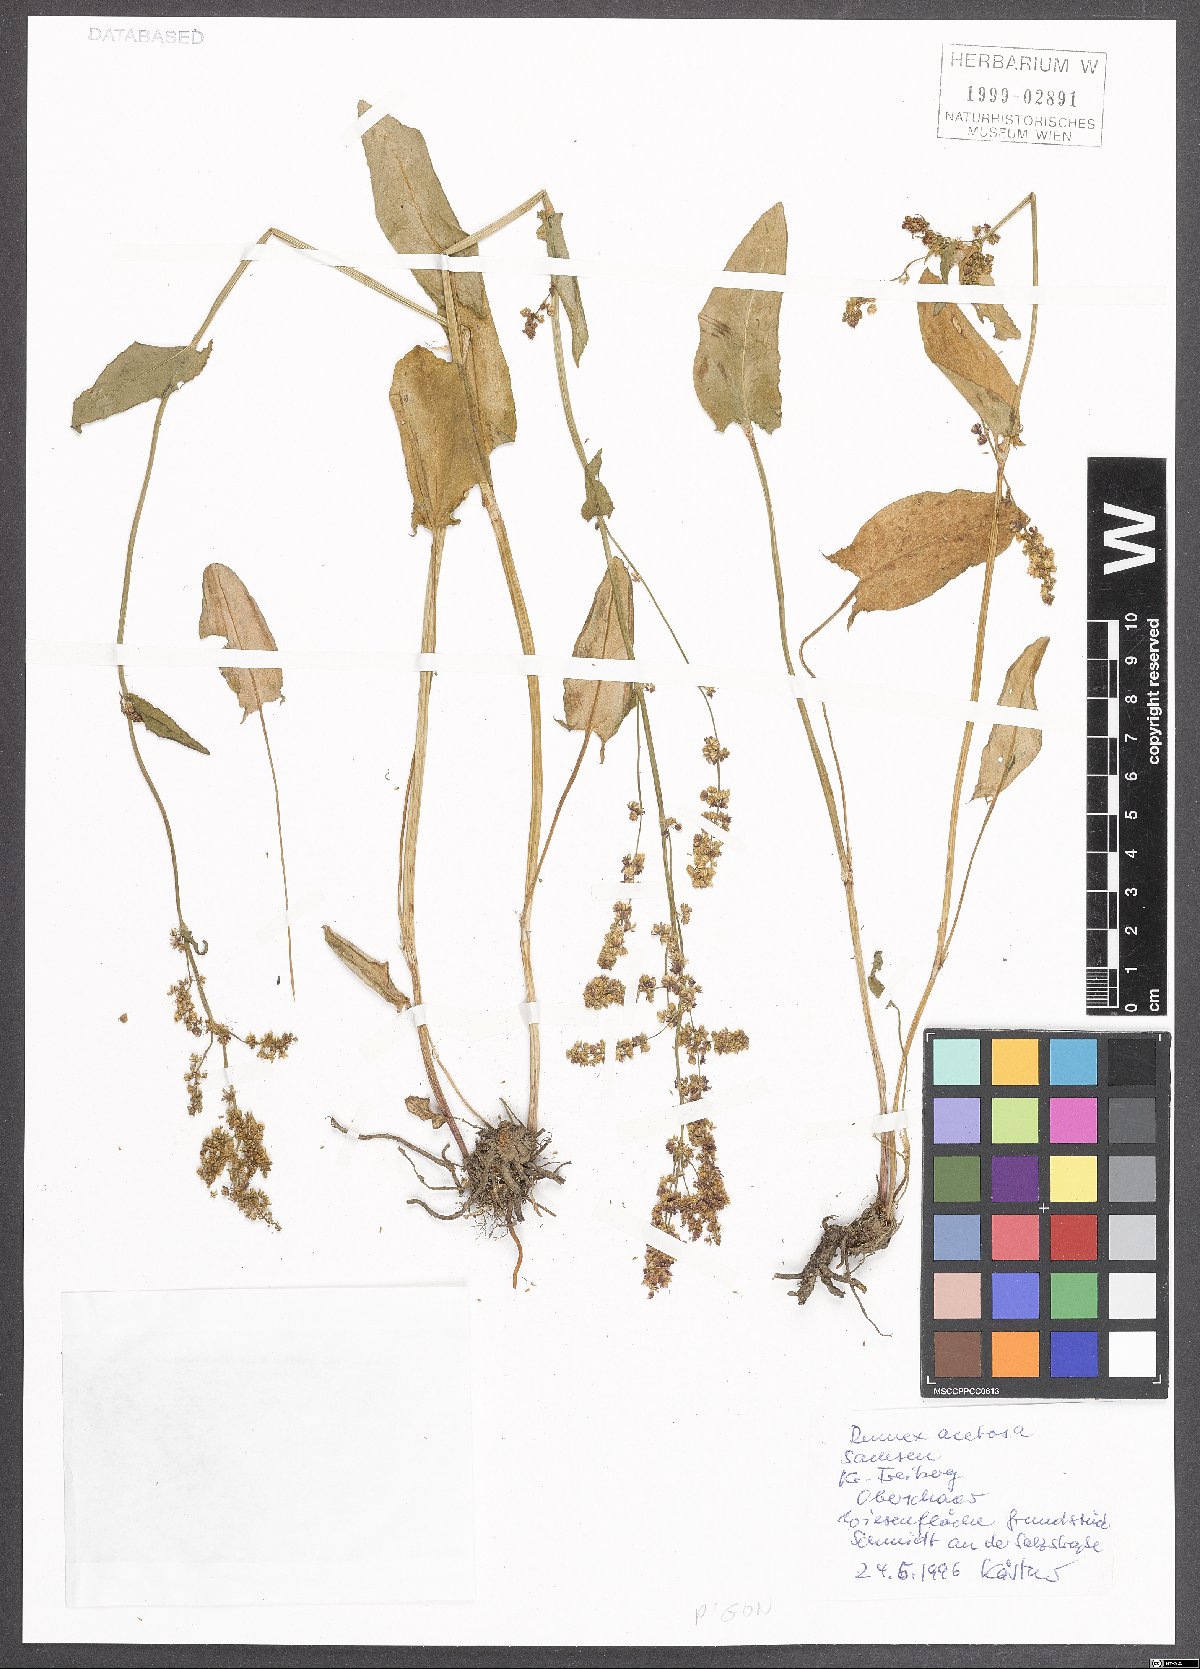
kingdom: Plantae
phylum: Tracheophyta
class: Magnoliopsida
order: Caryophyllales
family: Polygonaceae
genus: Rumex
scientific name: Rumex acetosa
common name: Garden sorrel
